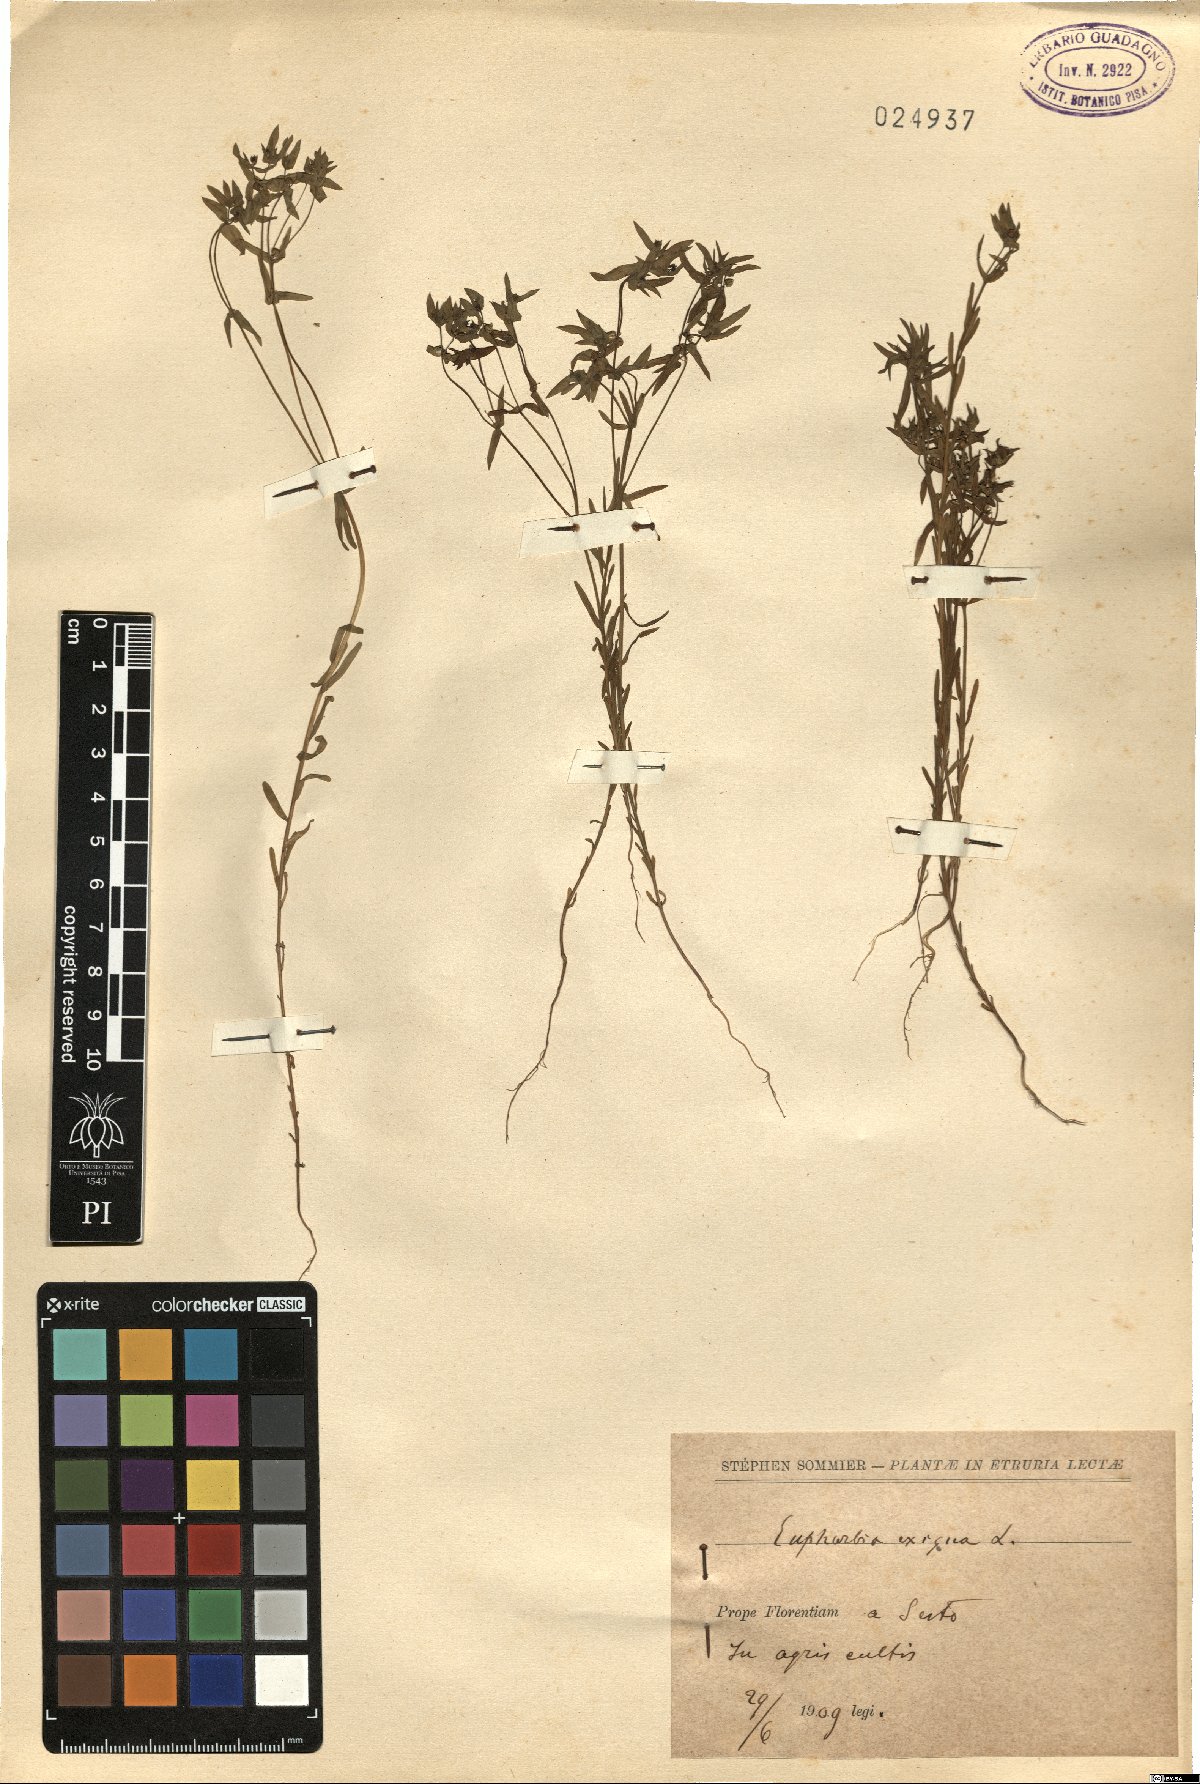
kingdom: Plantae
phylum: Tracheophyta
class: Magnoliopsida
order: Malpighiales
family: Euphorbiaceae
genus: Euphorbia
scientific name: Euphorbia exigua
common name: Dwarf spurge
